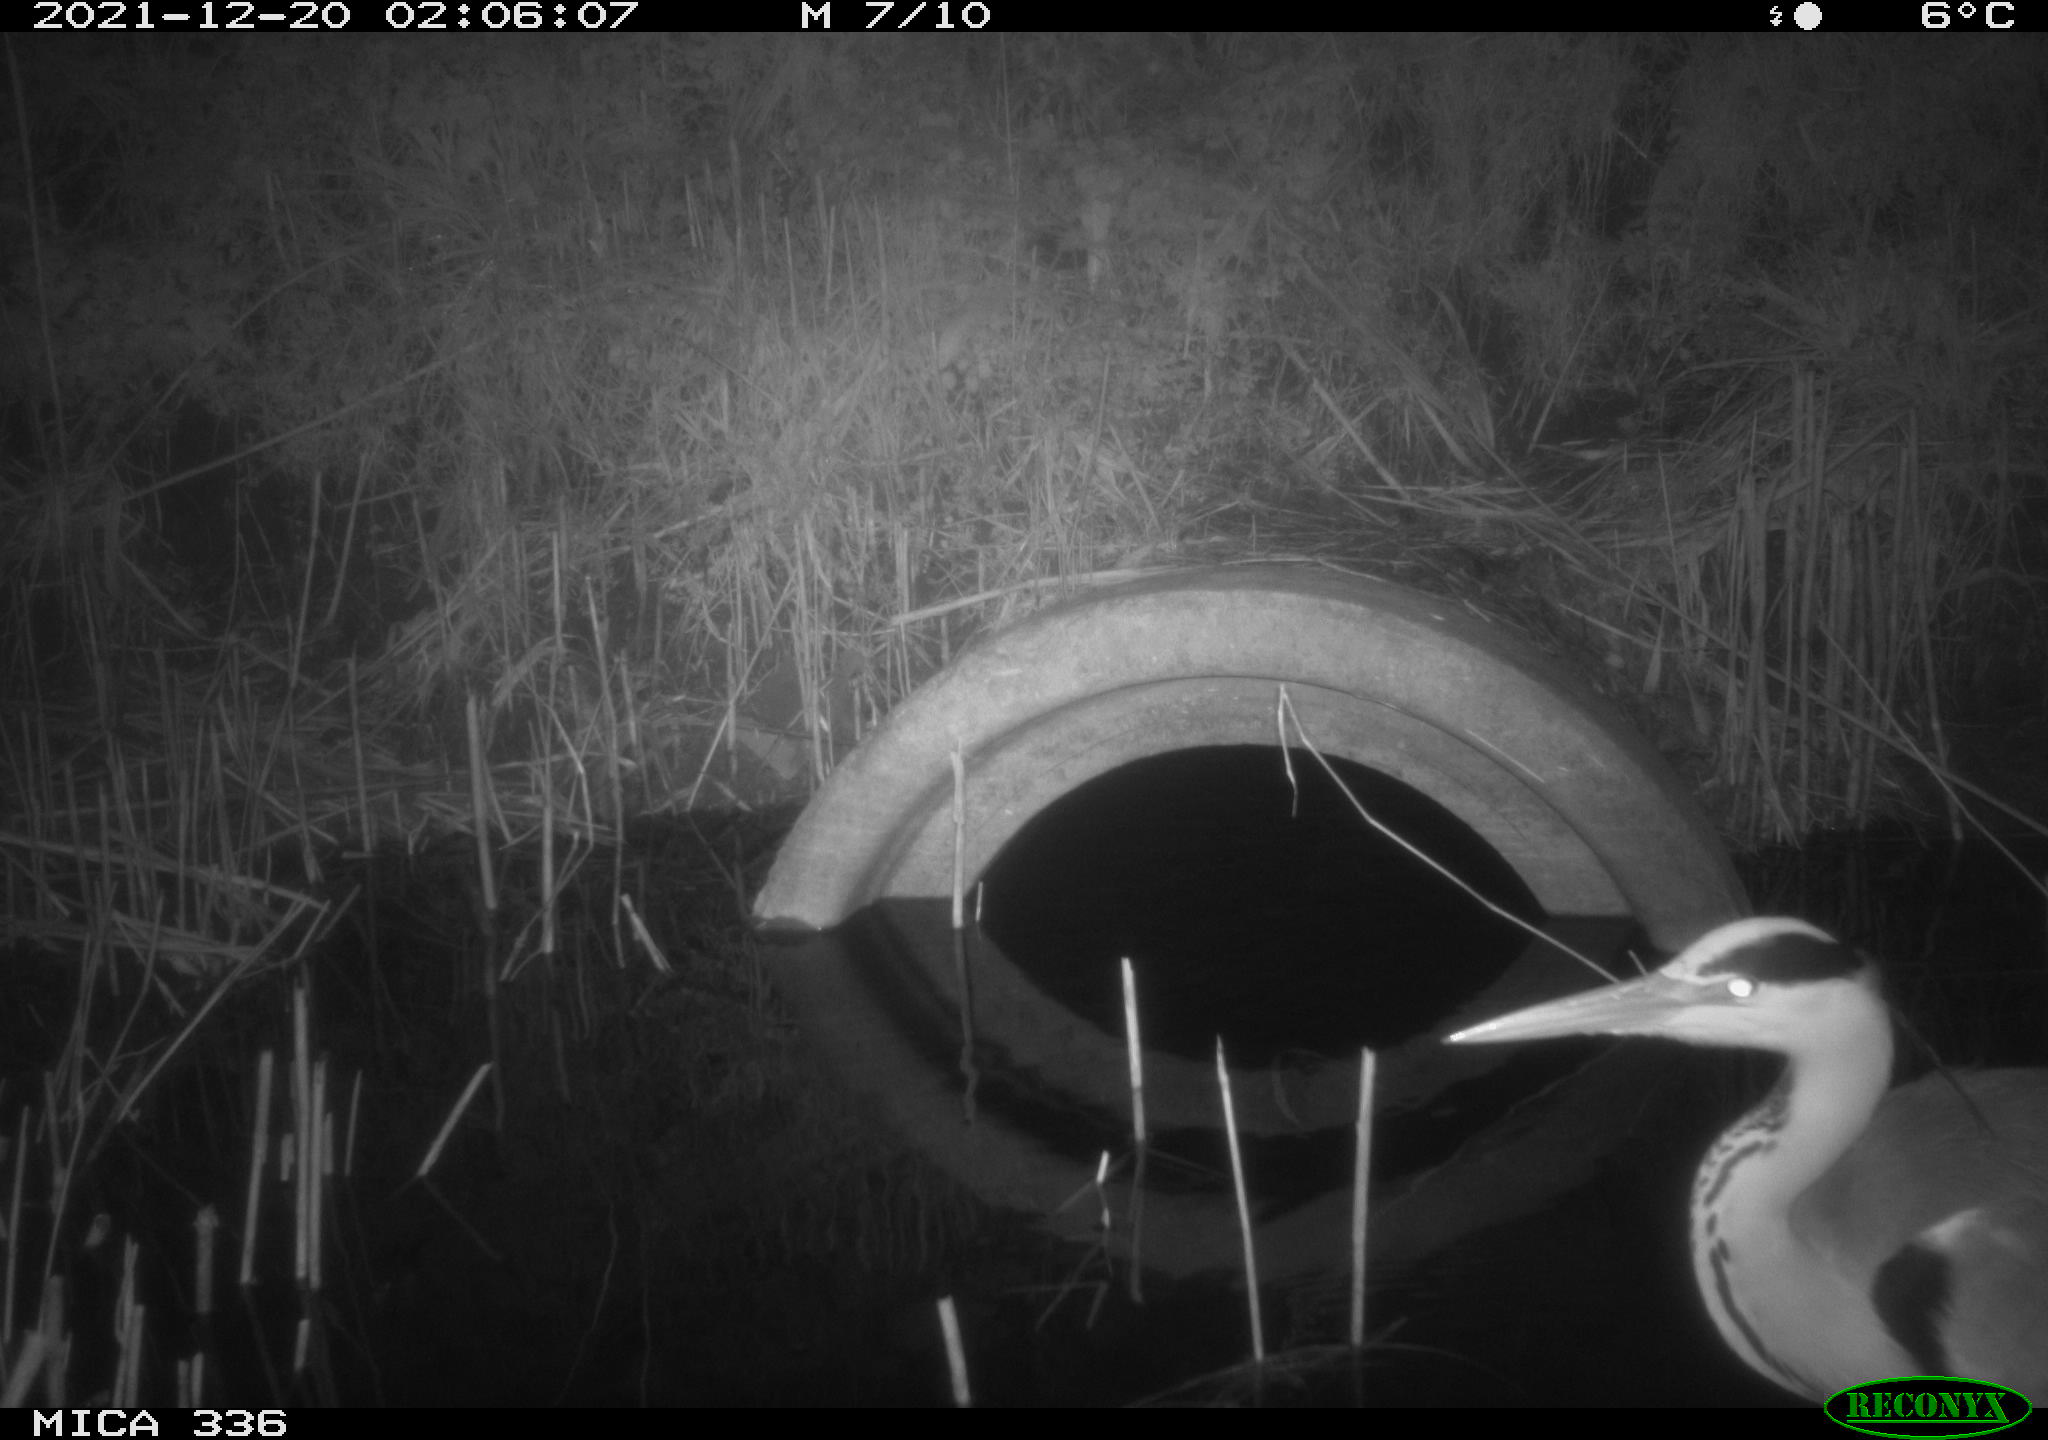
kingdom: Animalia
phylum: Chordata
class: Aves
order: Pelecaniformes
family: Ardeidae
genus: Ardea
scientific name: Ardea cinerea
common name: Grey heron
